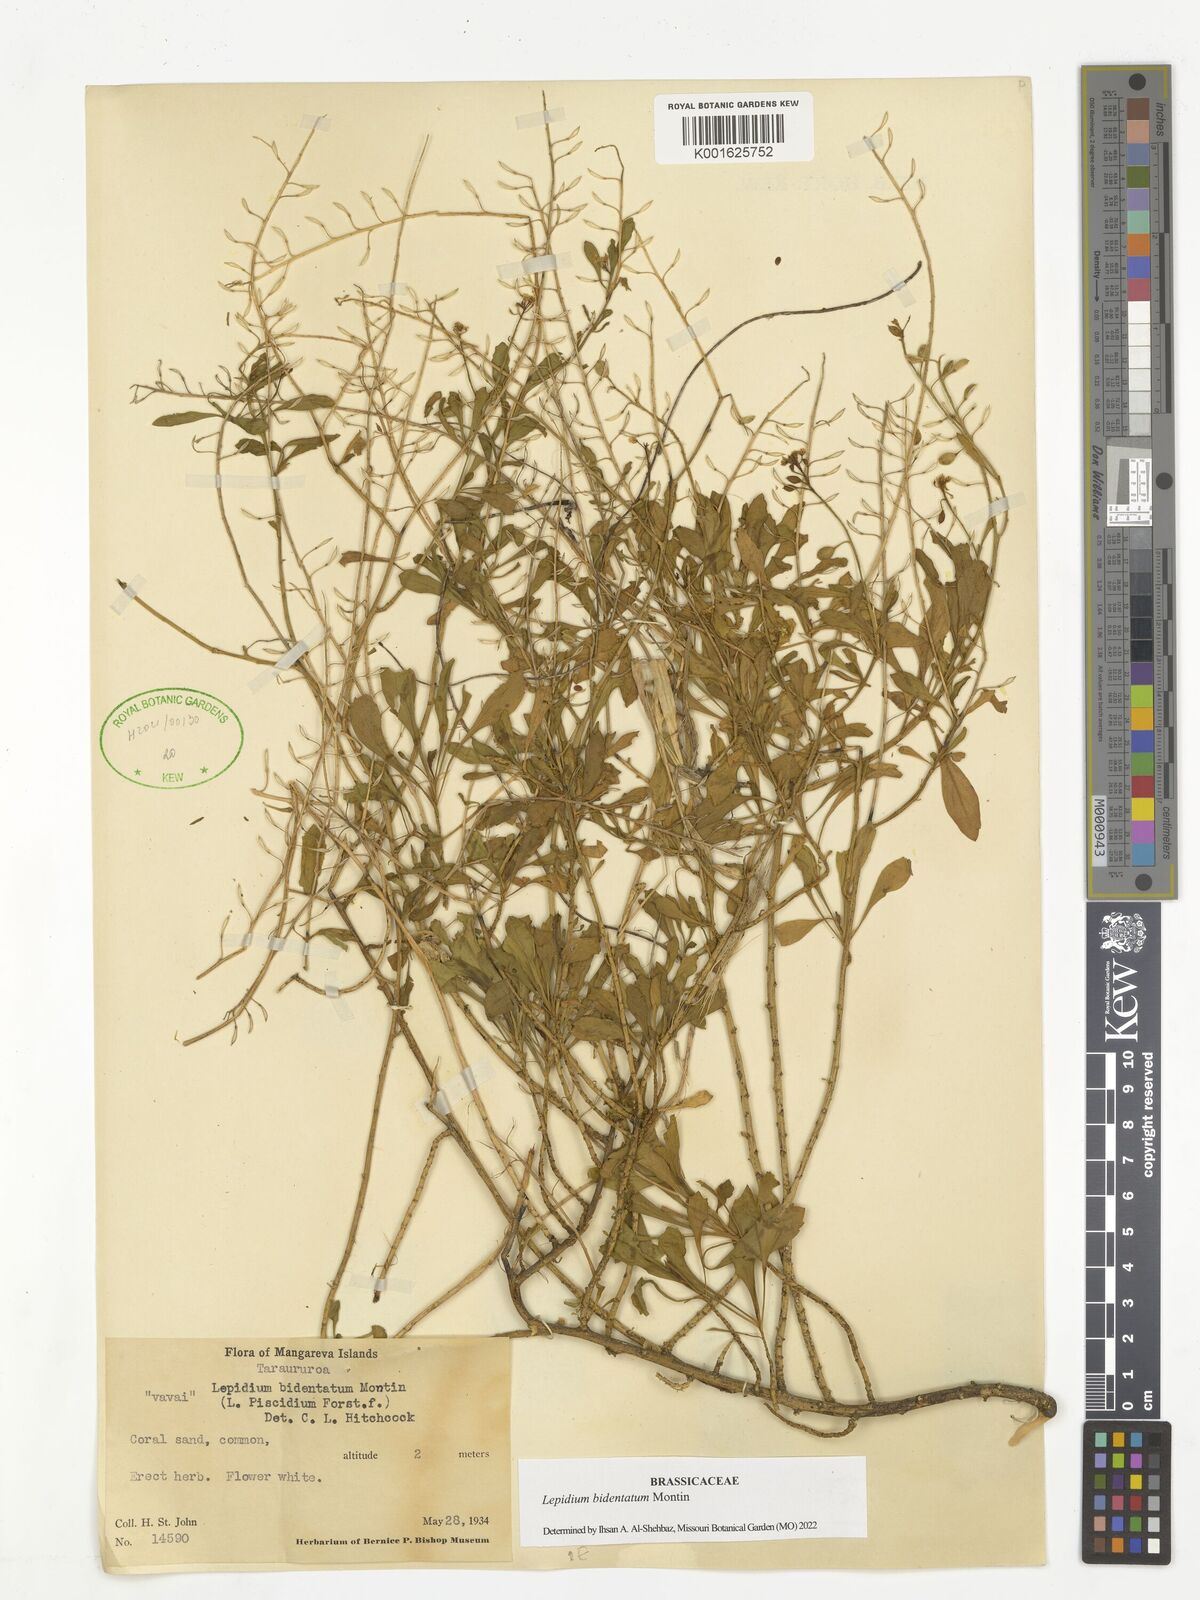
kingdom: Plantae
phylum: Tracheophyta
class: Magnoliopsida
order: Brassicales
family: Brassicaceae
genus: Lepidium
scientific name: Lepidium bidentatum
